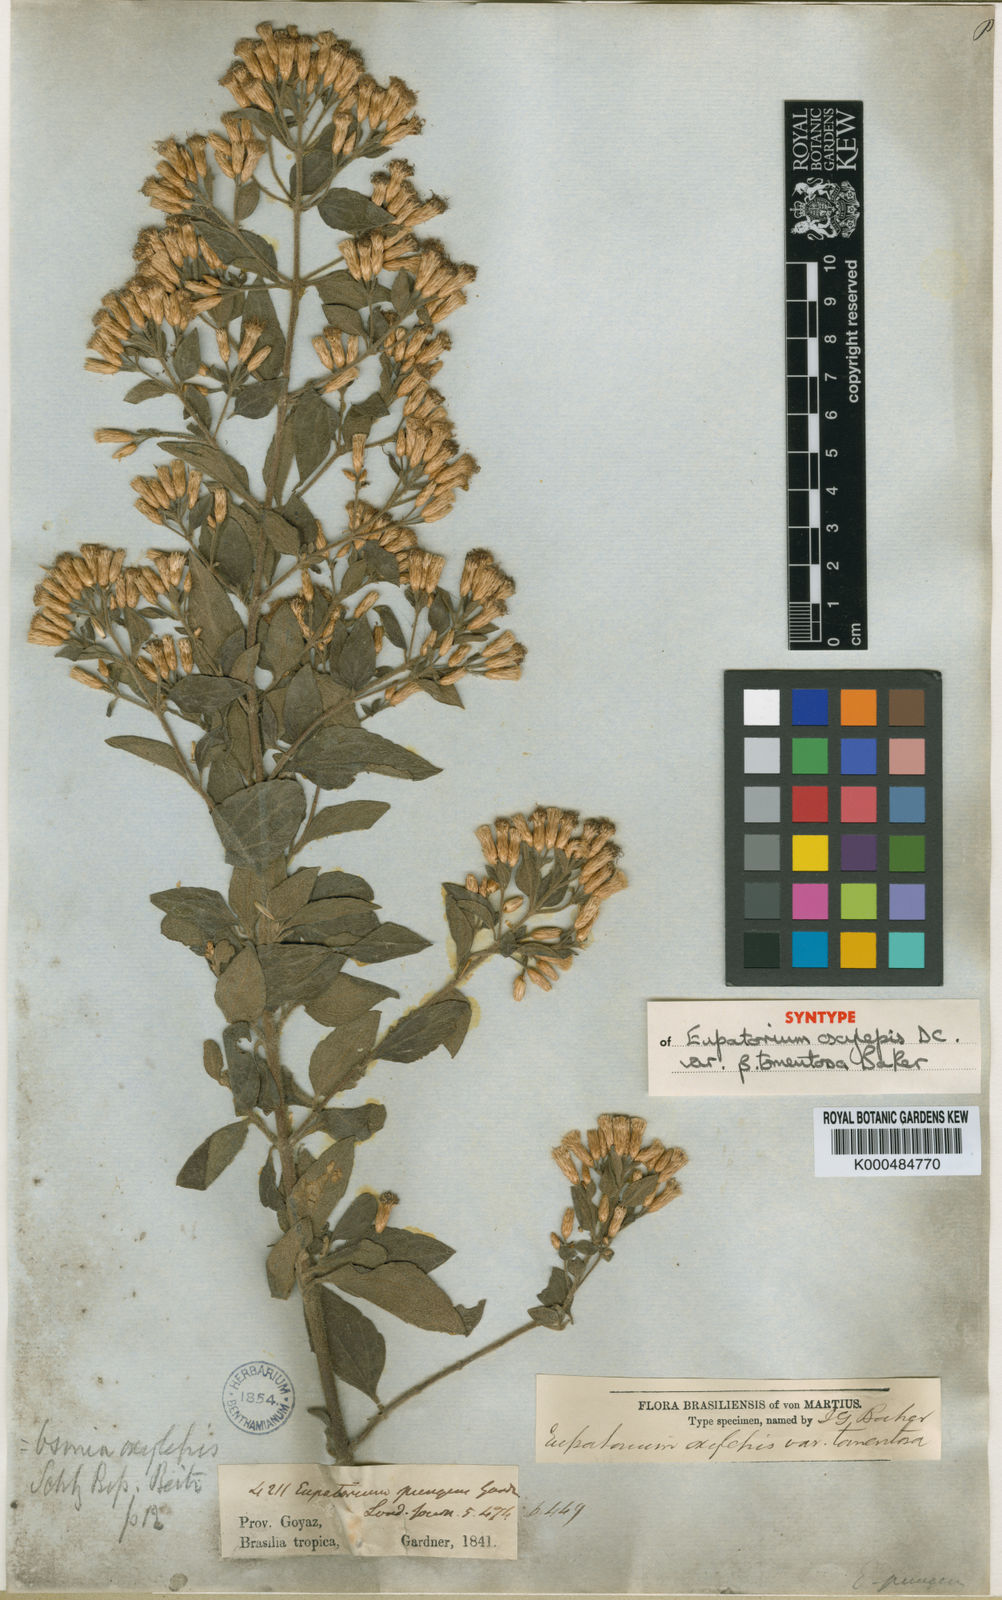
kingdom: Plantae
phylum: Tracheophyta
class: Magnoliopsida
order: Asterales
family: Asteraceae
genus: Chromolaena
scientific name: Chromolaena pungens
